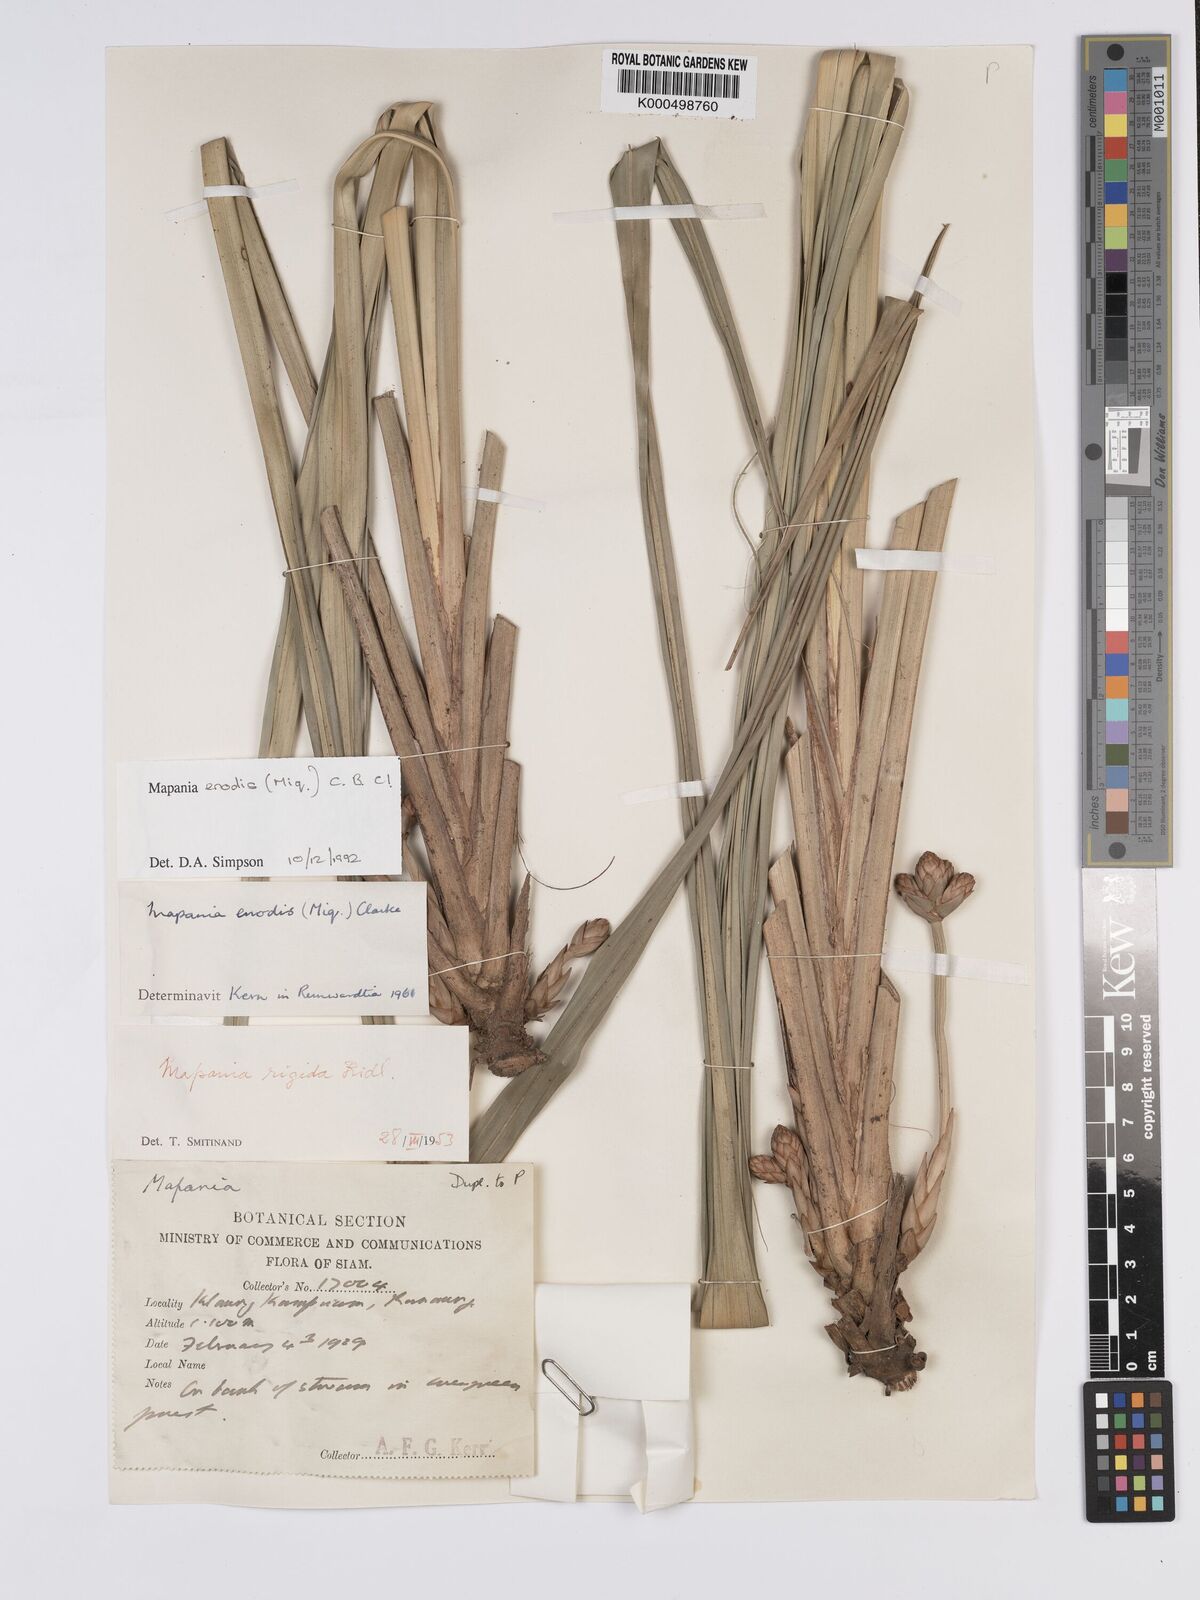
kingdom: Plantae
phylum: Tracheophyta
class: Liliopsida
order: Poales
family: Cyperaceae
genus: Mapania
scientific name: Mapania enodis
